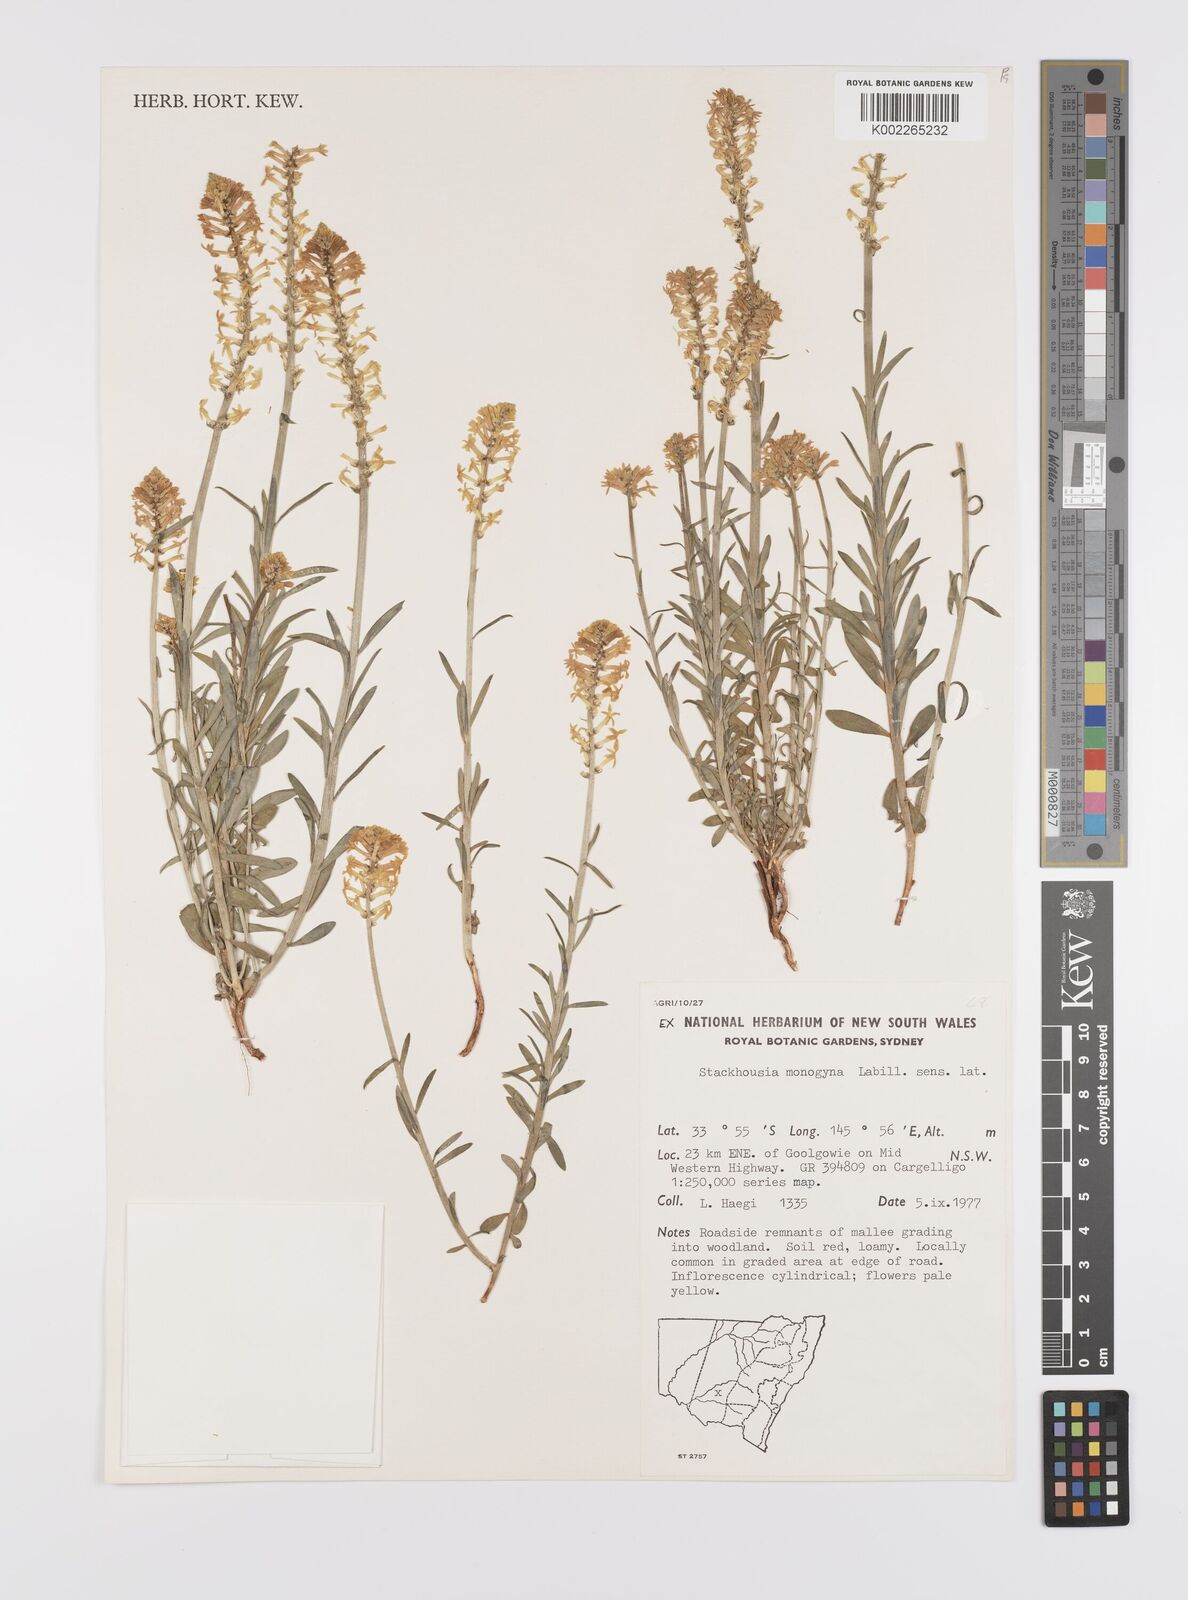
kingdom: Plantae
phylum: Tracheophyta
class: Magnoliopsida
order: Celastrales
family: Celastraceae
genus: Stackhousia
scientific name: Stackhousia monogyna
